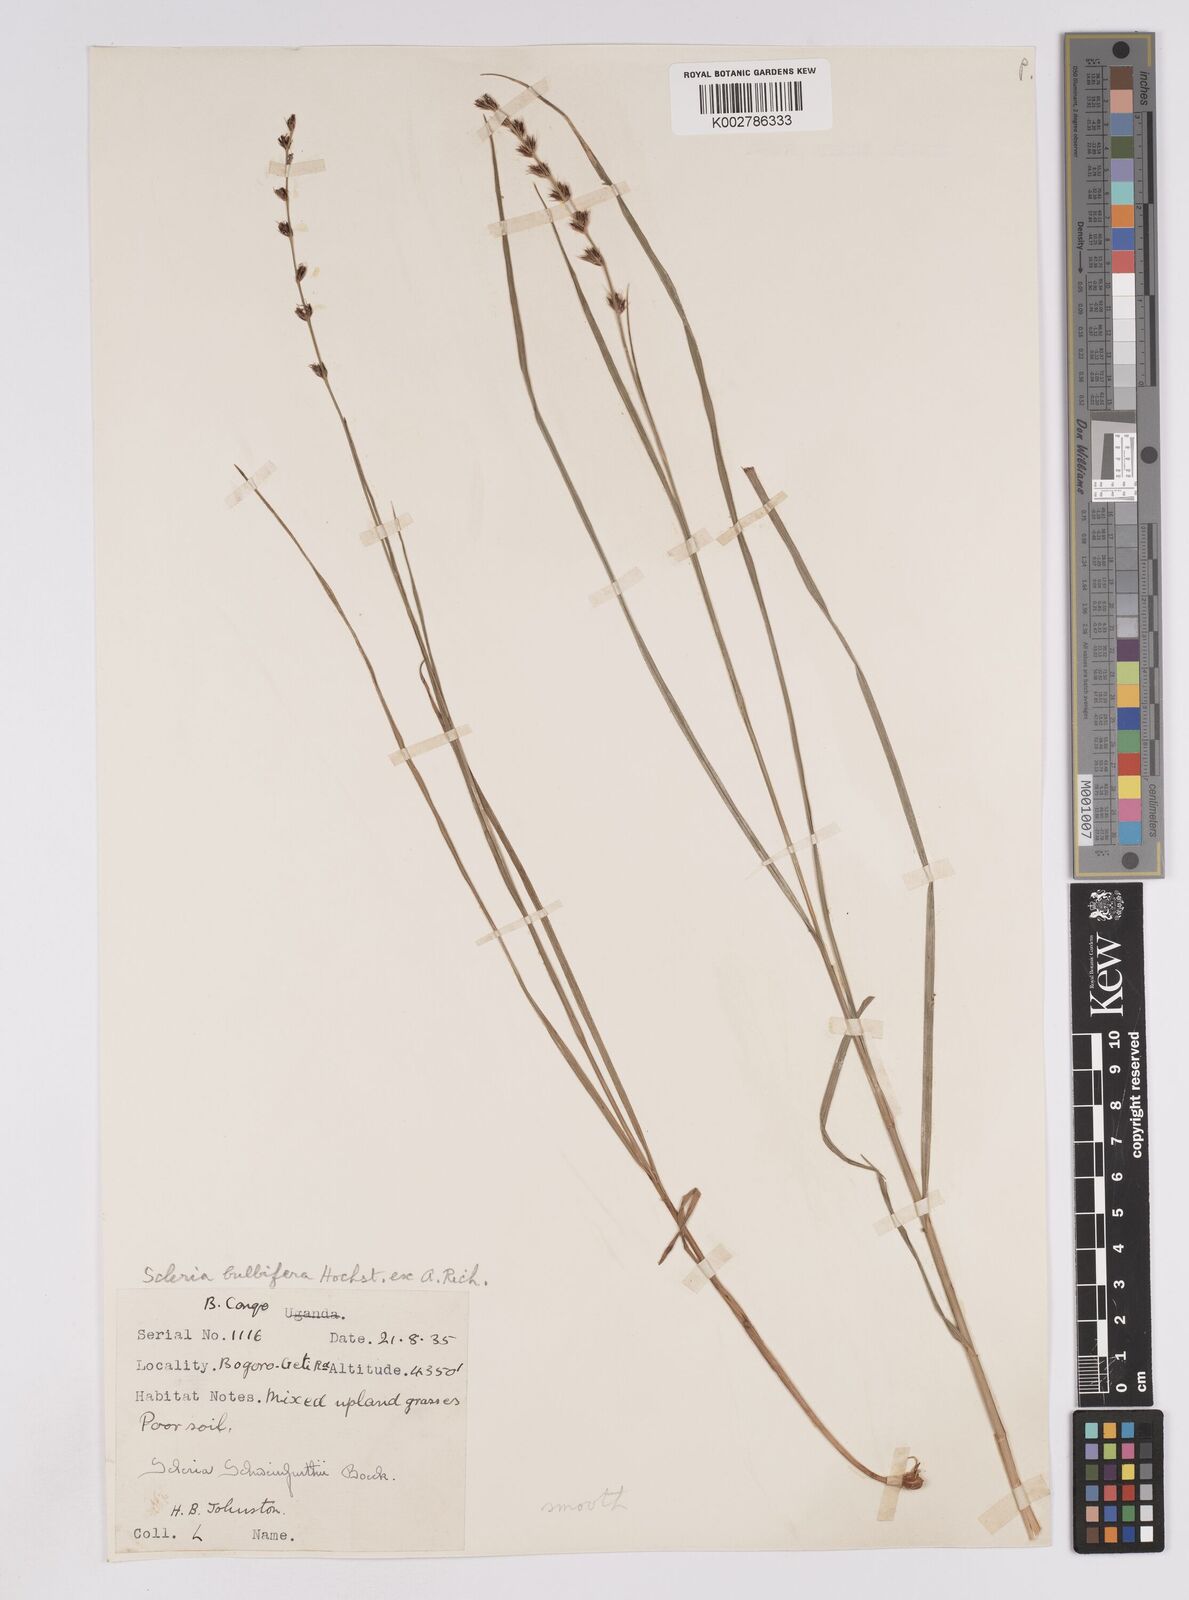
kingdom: Plantae
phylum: Tracheophyta
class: Liliopsida
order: Poales
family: Cyperaceae
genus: Scleria
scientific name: Scleria bulbifera
